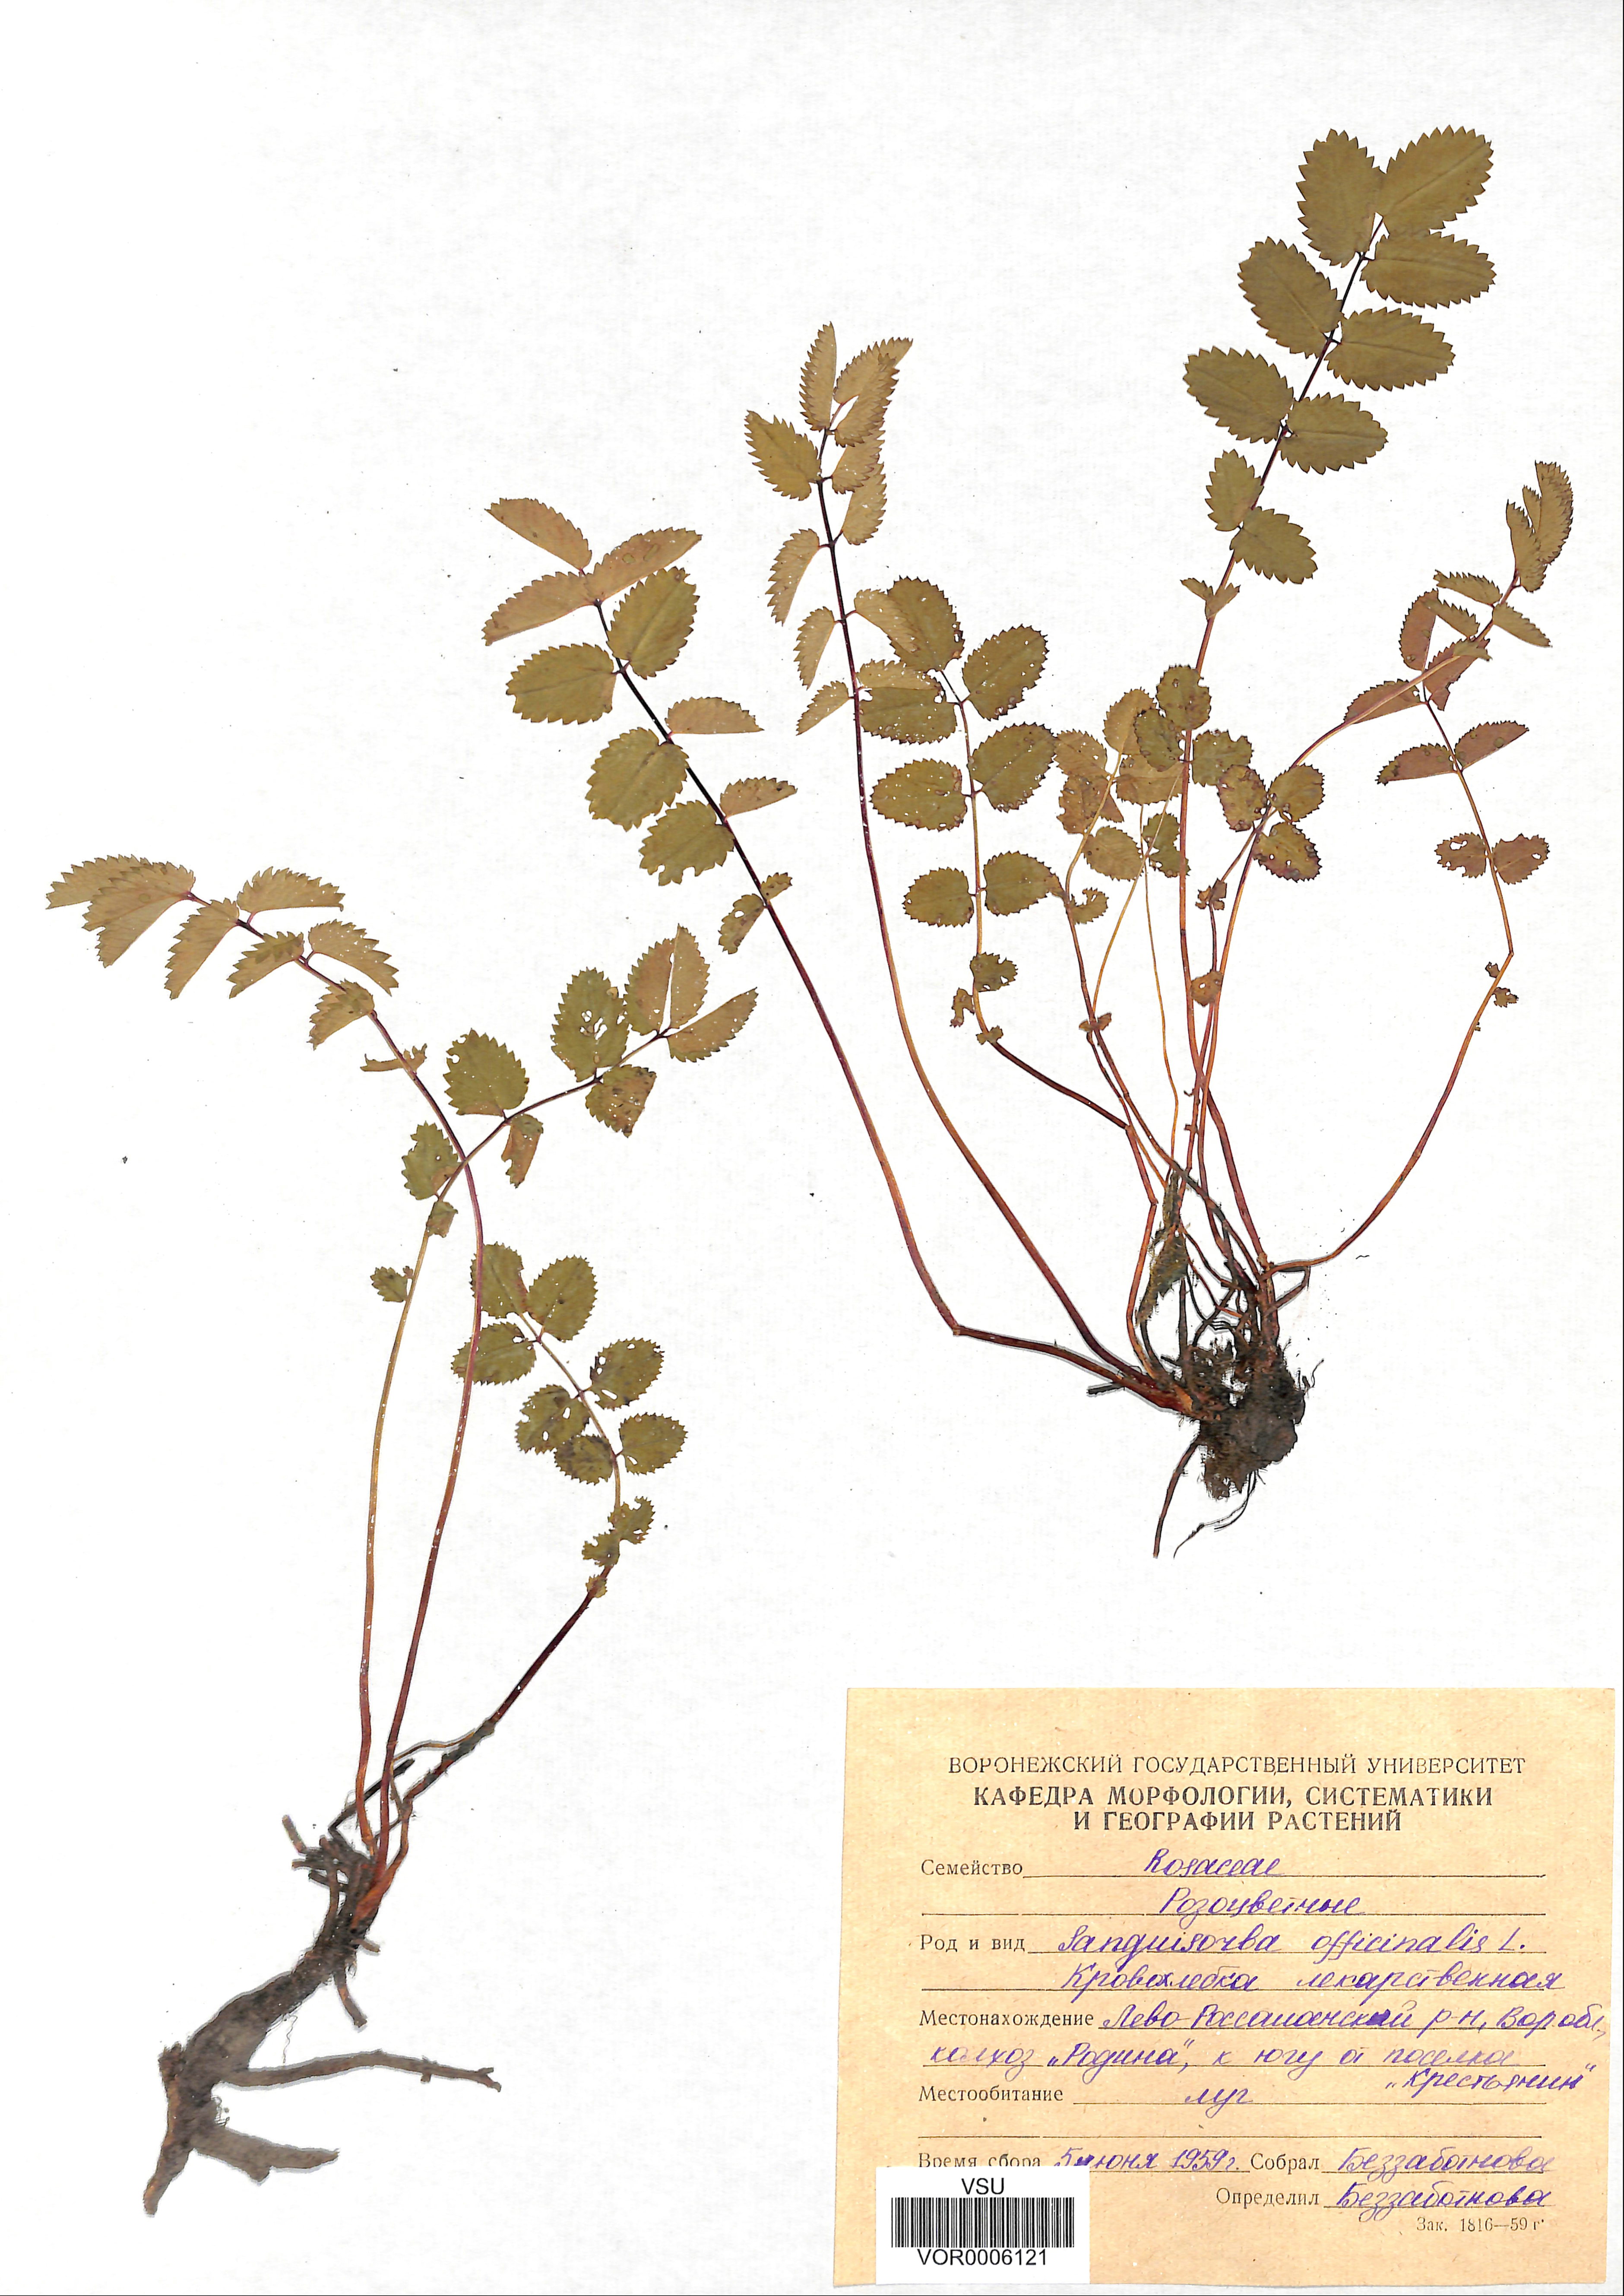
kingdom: Plantae
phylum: Tracheophyta
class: Magnoliopsida
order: Rosales
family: Rosaceae
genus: Sanguisorba
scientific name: Sanguisorba officinalis
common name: Great burnet
